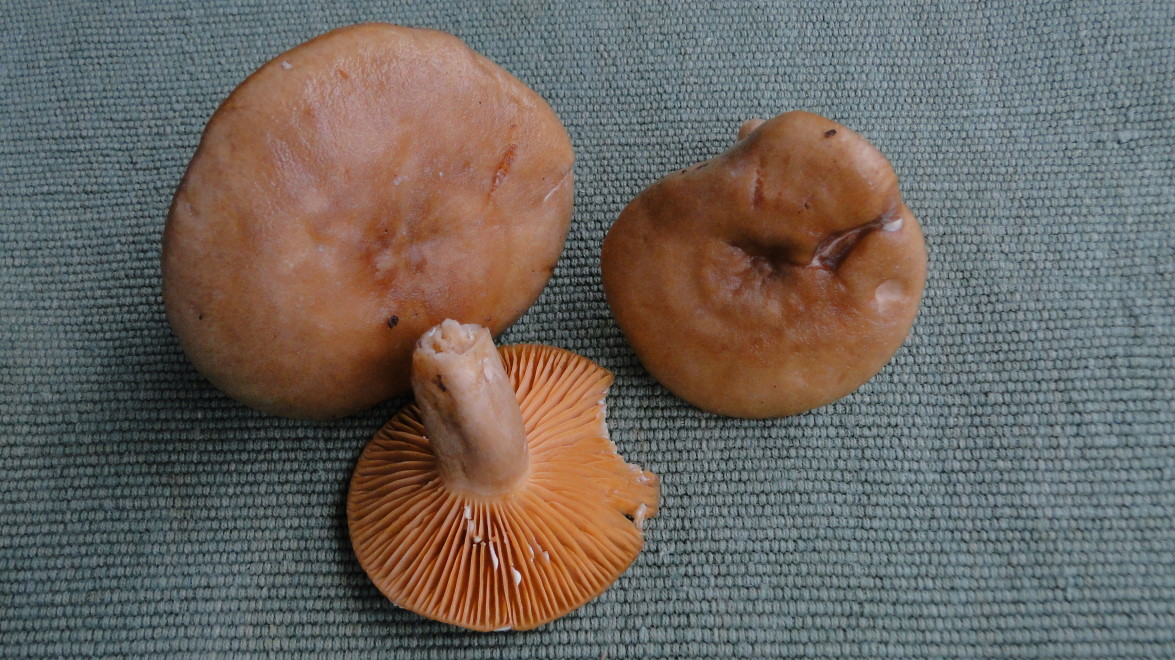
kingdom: Fungi
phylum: Basidiomycota
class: Agaricomycetes
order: Russulales
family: Russulaceae
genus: Lactarius
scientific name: Lactarius pyrogalus
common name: hassel-mælkehat
